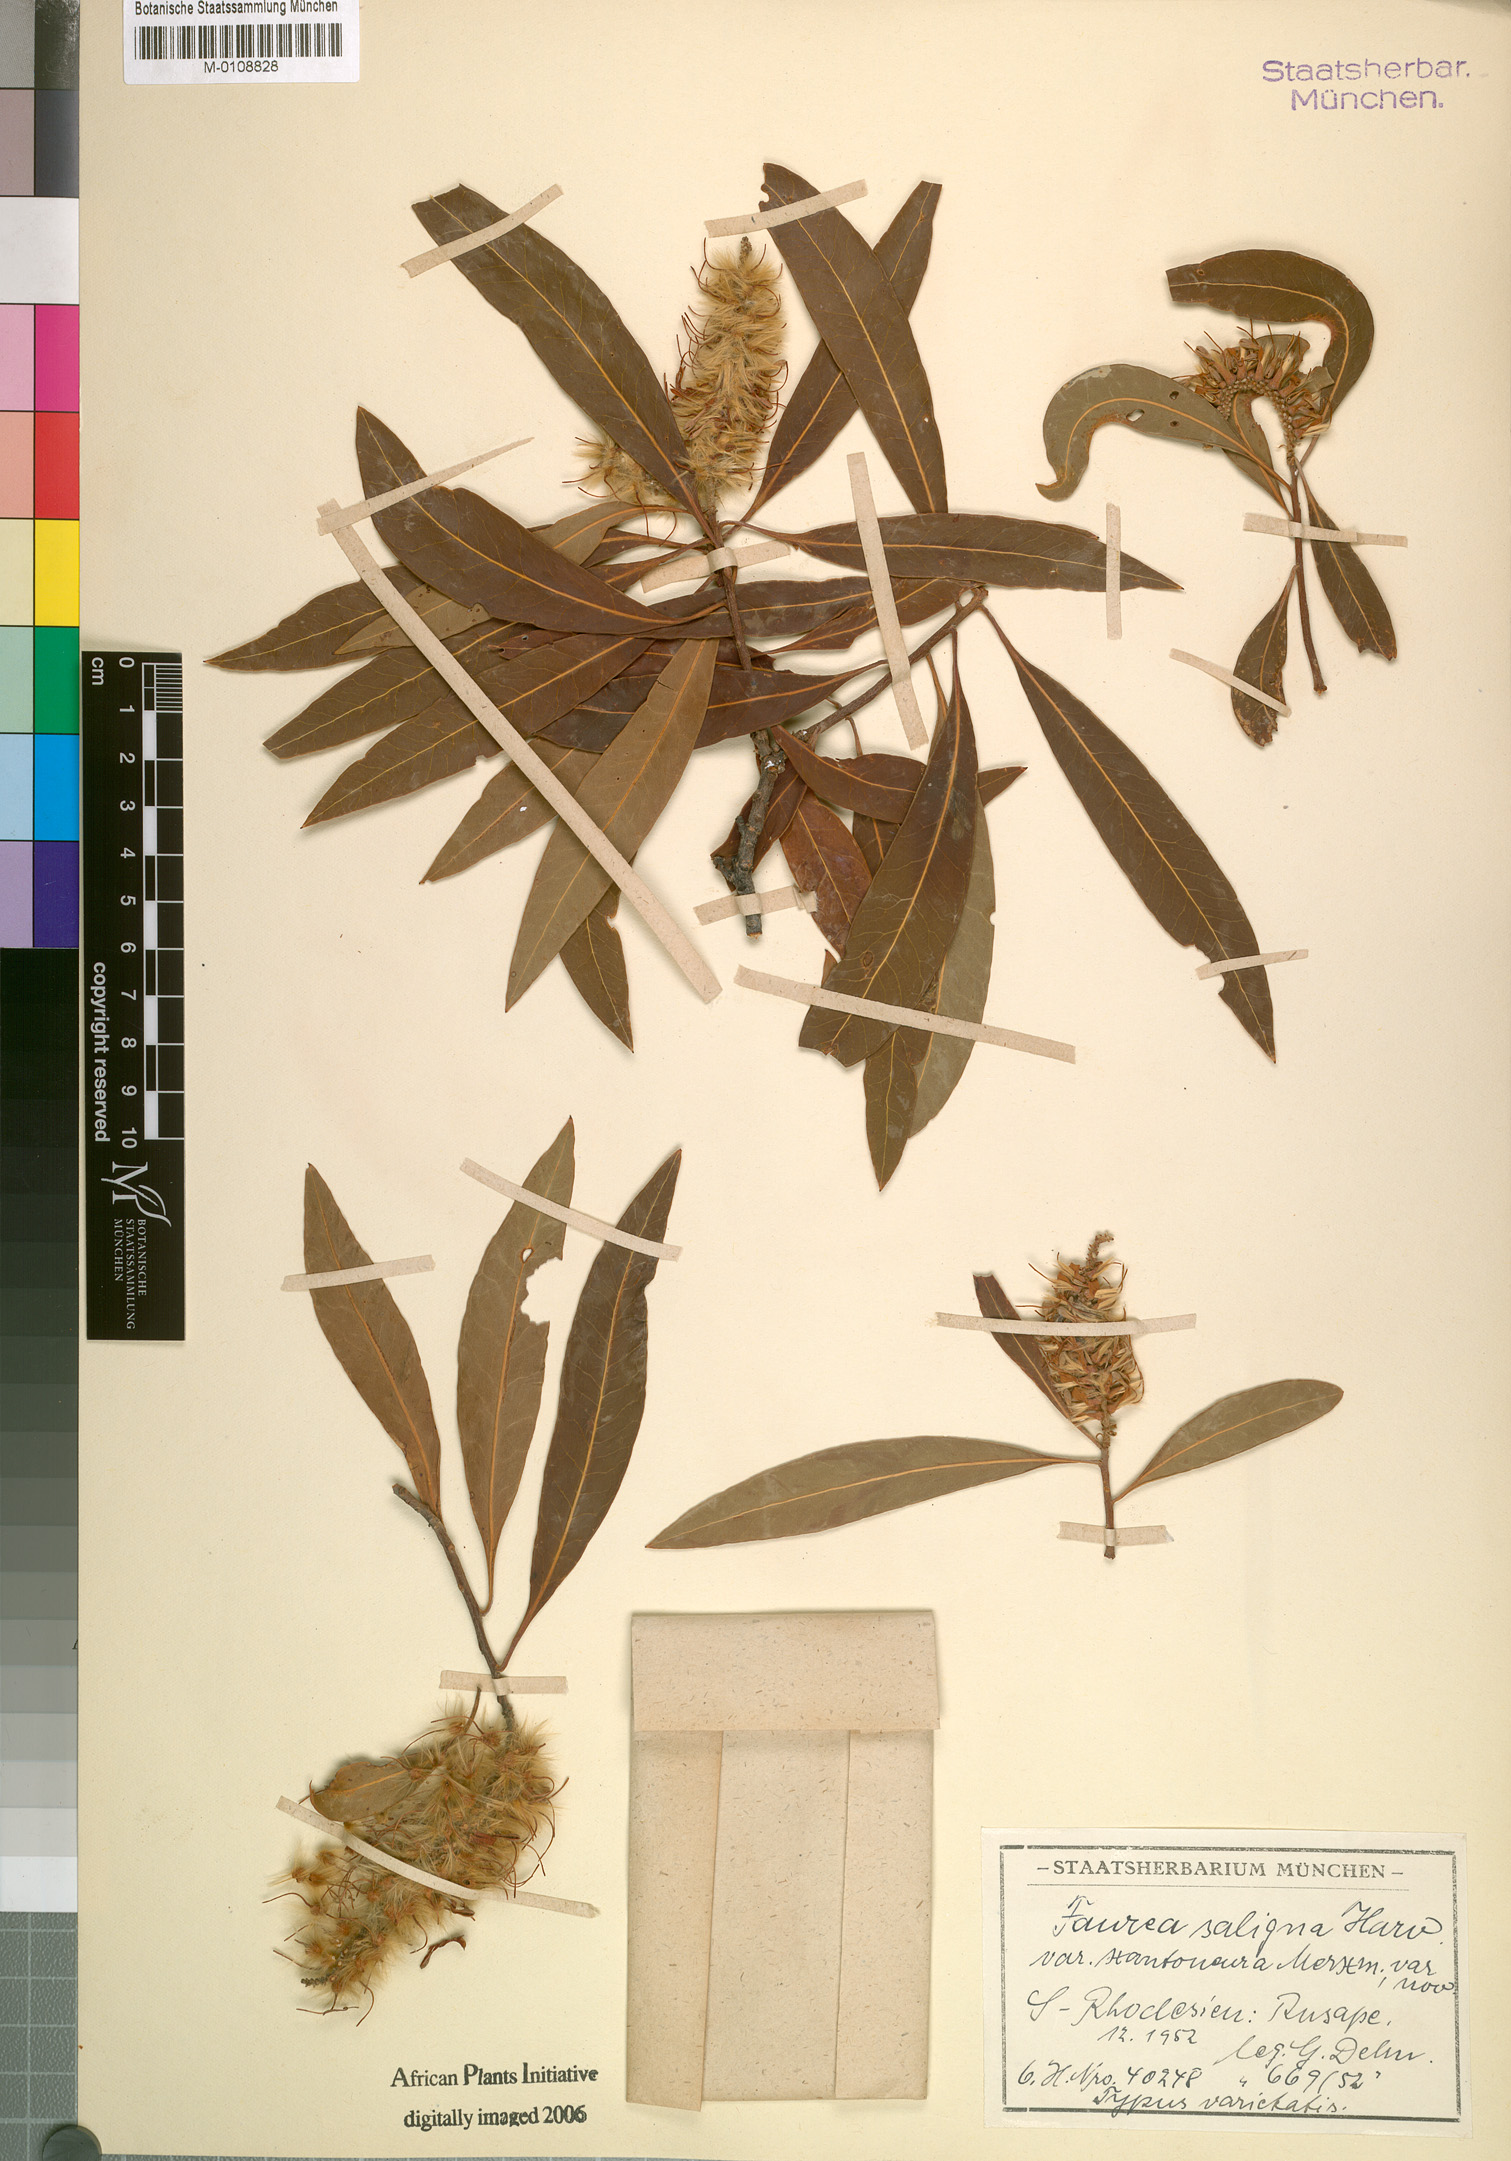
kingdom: Plantae
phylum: Tracheophyta
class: Magnoliopsida
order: Proteales
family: Proteaceae
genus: Faurea
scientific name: Faurea saligna
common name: African bean
